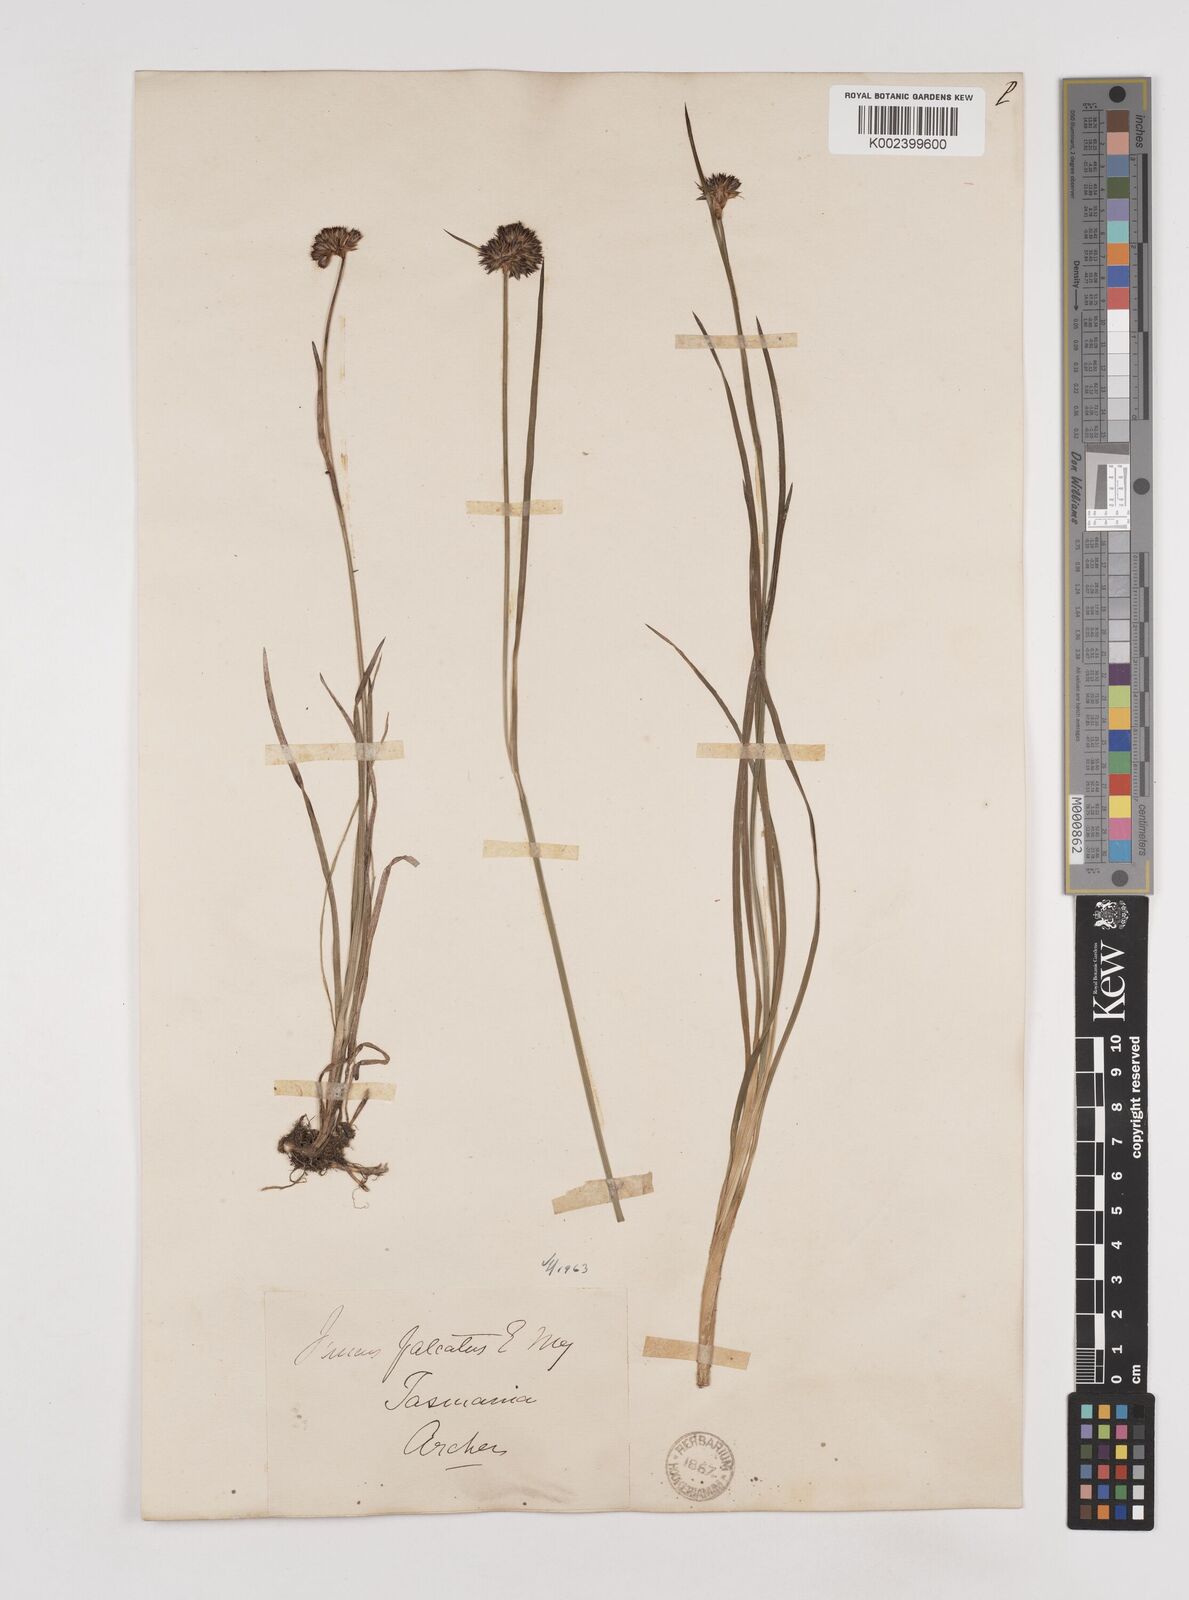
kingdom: Plantae
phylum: Tracheophyta
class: Liliopsida
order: Poales
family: Juncaceae
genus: Juncus
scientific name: Juncus falcatus
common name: Sickle-leaf rush
